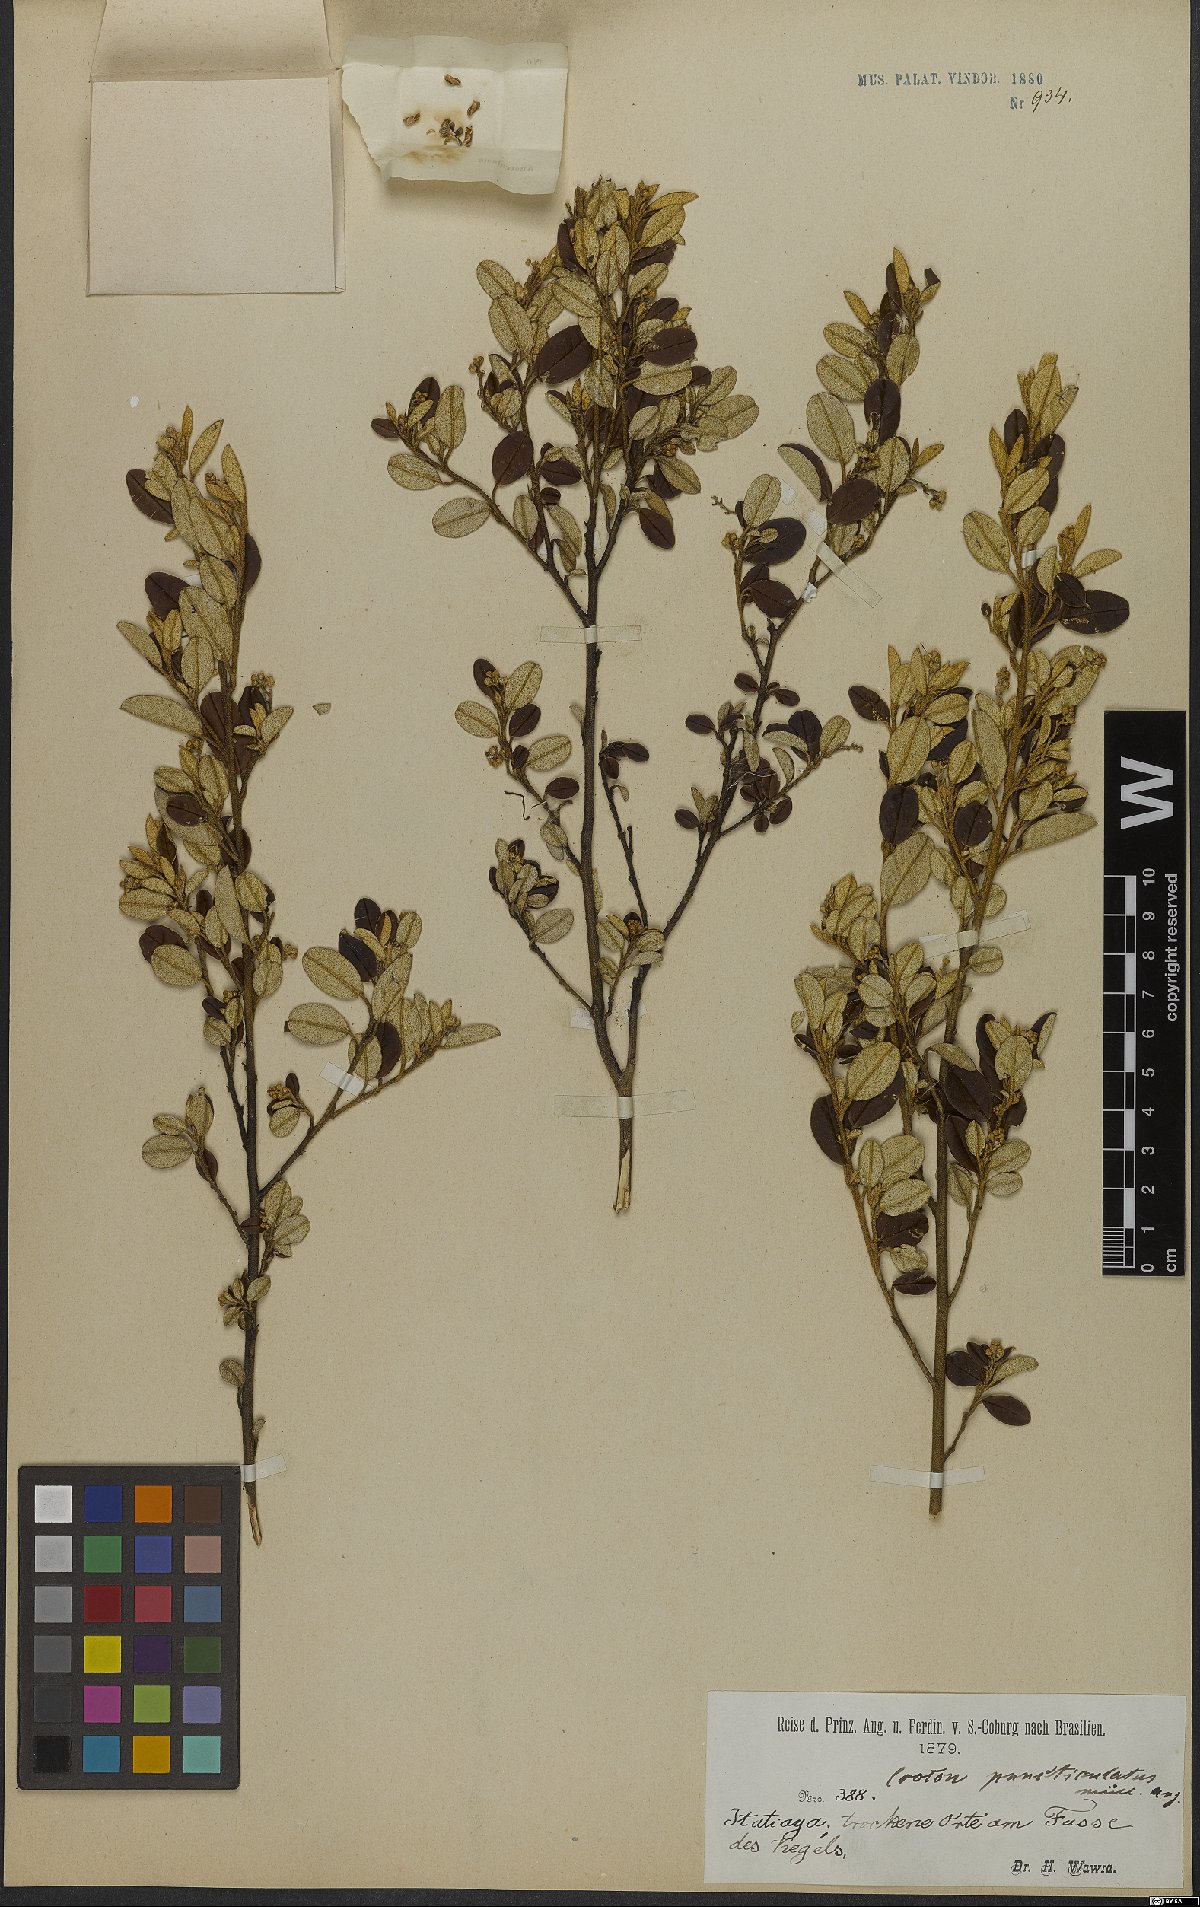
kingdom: Plantae
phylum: Tracheophyta
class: Magnoliopsida
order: Malpighiales
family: Euphorbiaceae
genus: Croton
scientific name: Croton puncticulatus
